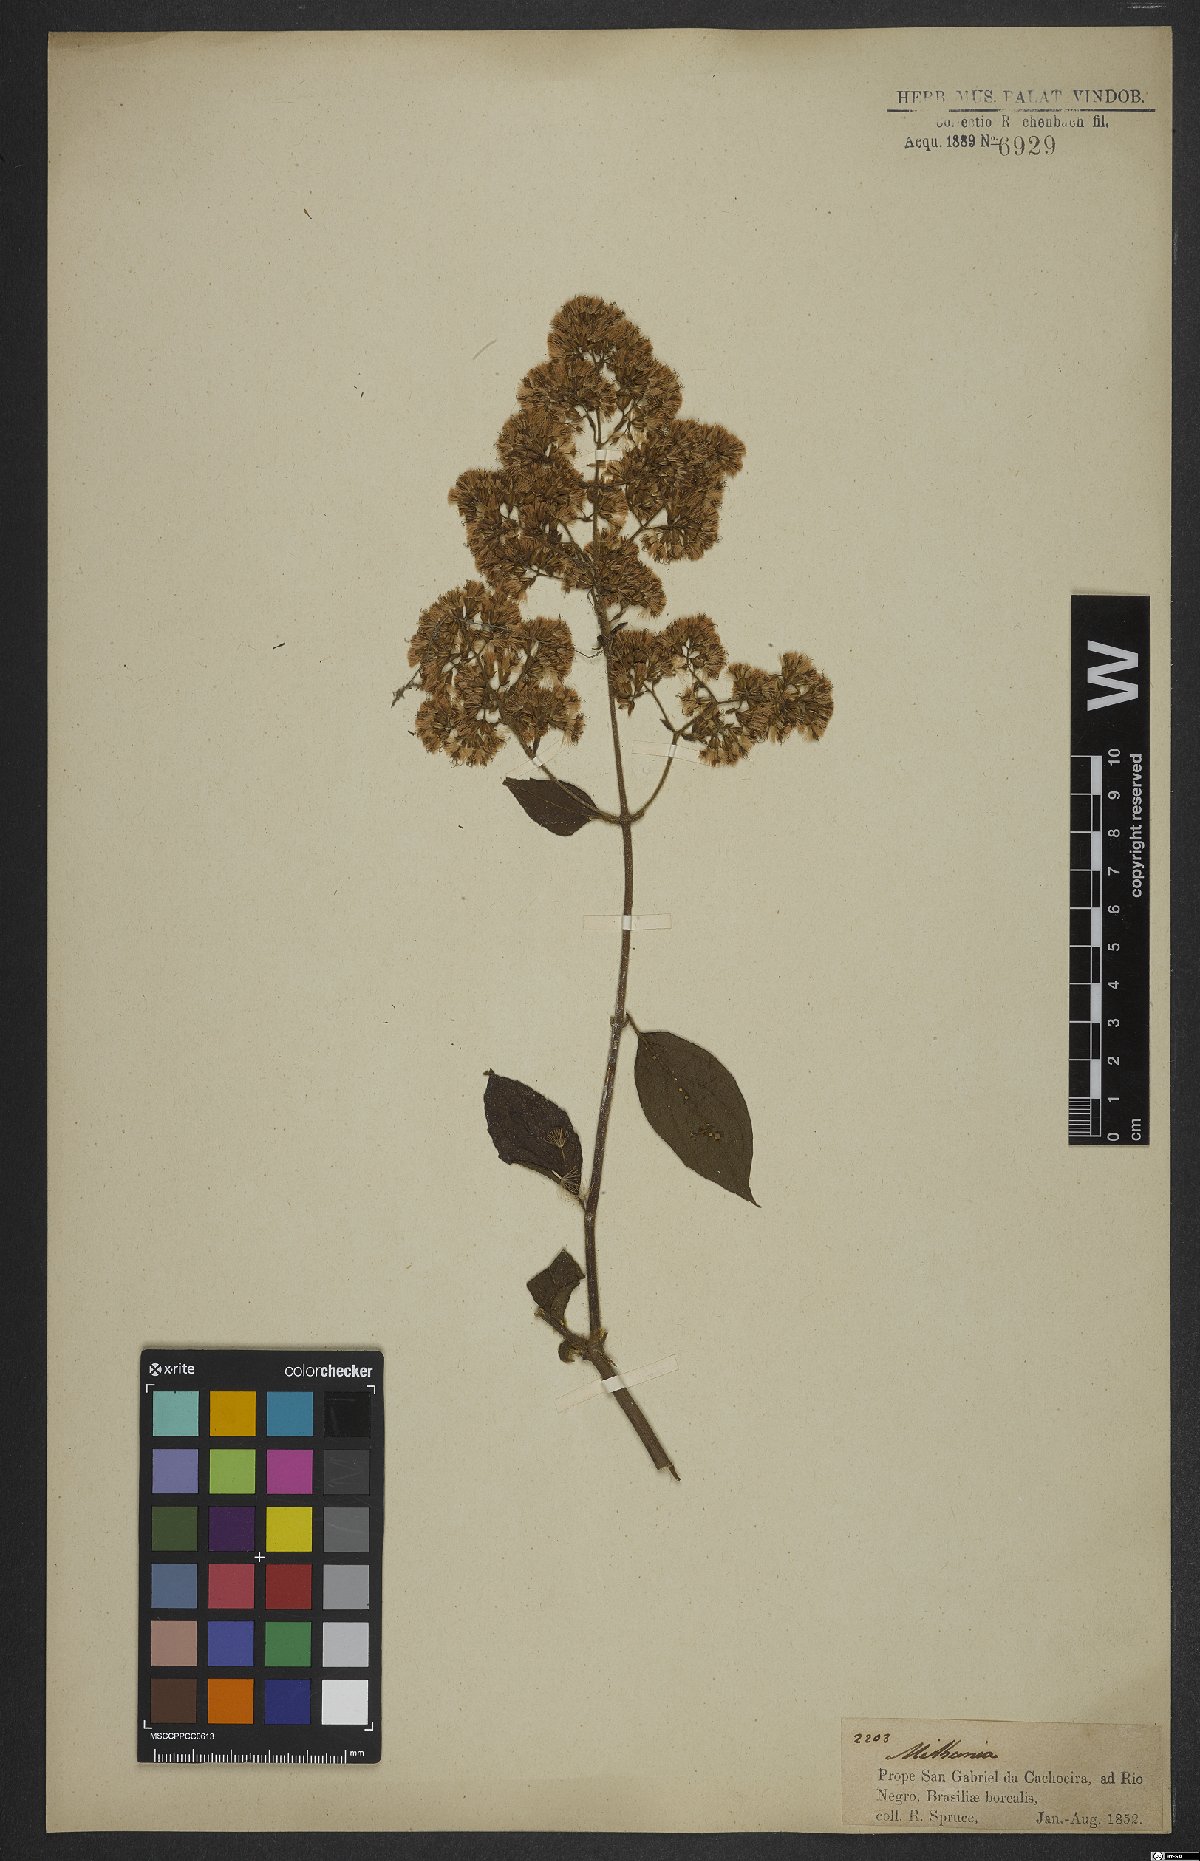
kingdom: Plantae
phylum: Tracheophyta
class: Magnoliopsida
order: Asterales
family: Asteraceae
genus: Mikania
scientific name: Mikania
